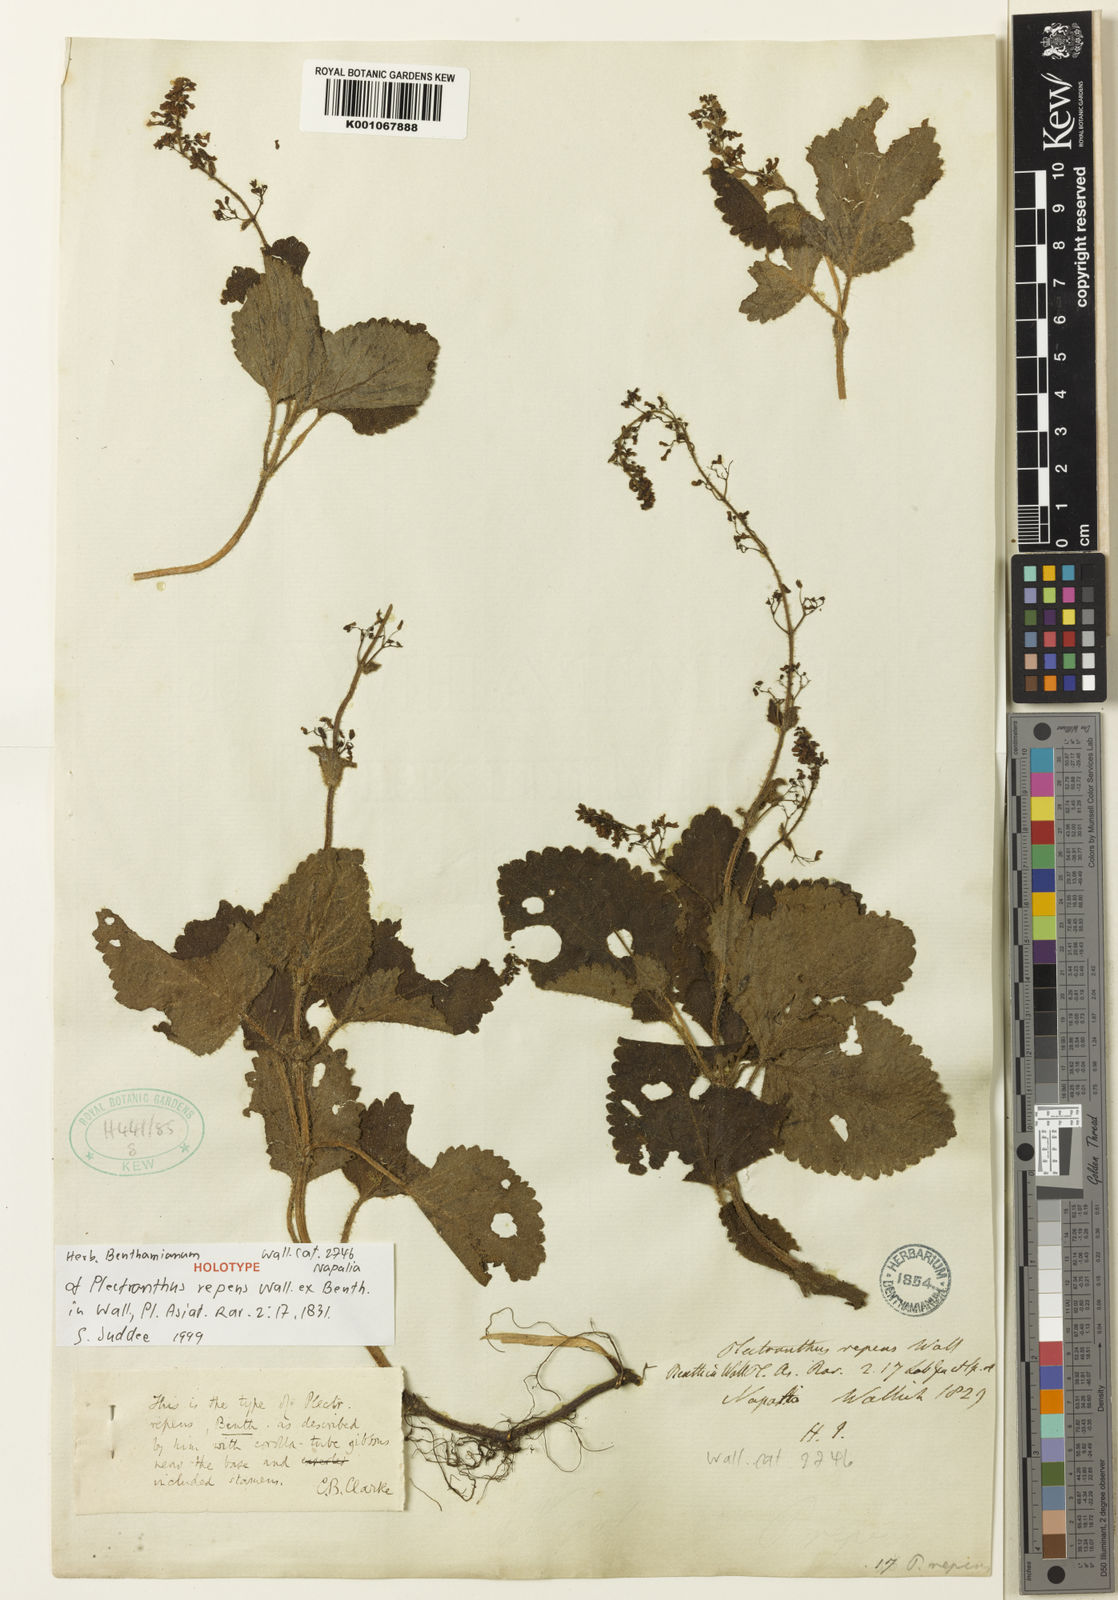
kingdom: Plantae
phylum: Tracheophyta
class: Magnoliopsida
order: Lamiales
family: Lamiaceae
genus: Isodon
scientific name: Isodon repens
